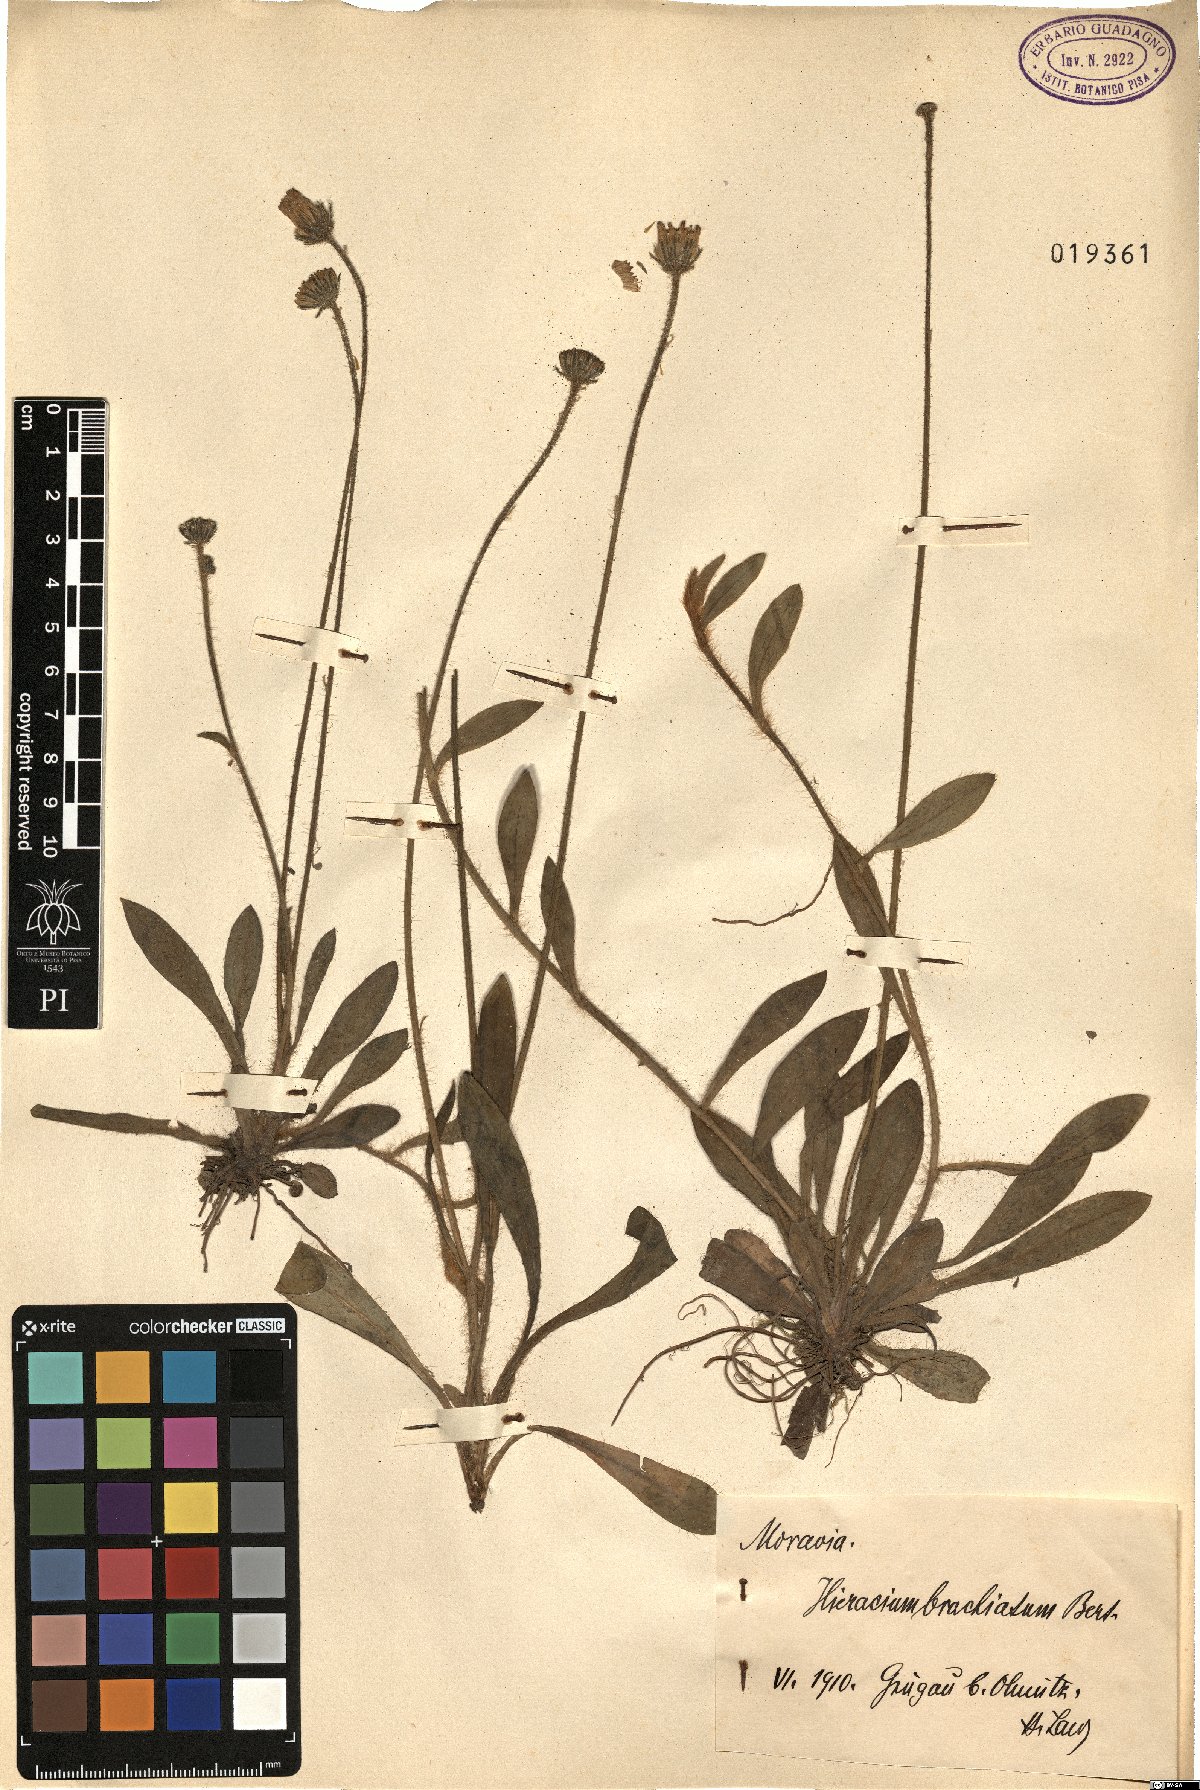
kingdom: Plantae
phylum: Tracheophyta
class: Magnoliopsida
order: Asterales
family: Asteraceae
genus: Pilosella
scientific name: Pilosella acutifolia
